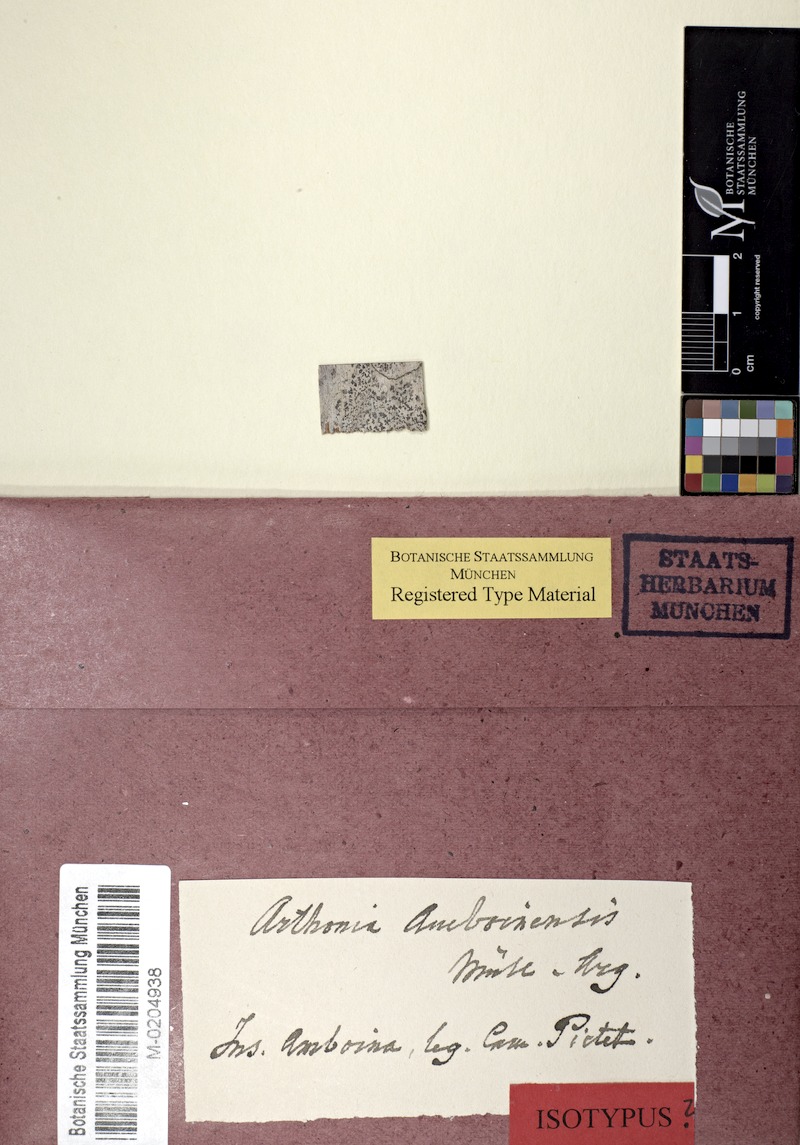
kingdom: Fungi
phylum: Ascomycota
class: Arthoniomycetes
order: Arthoniales
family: Arthoniaceae
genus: Arthonia
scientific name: Arthonia
